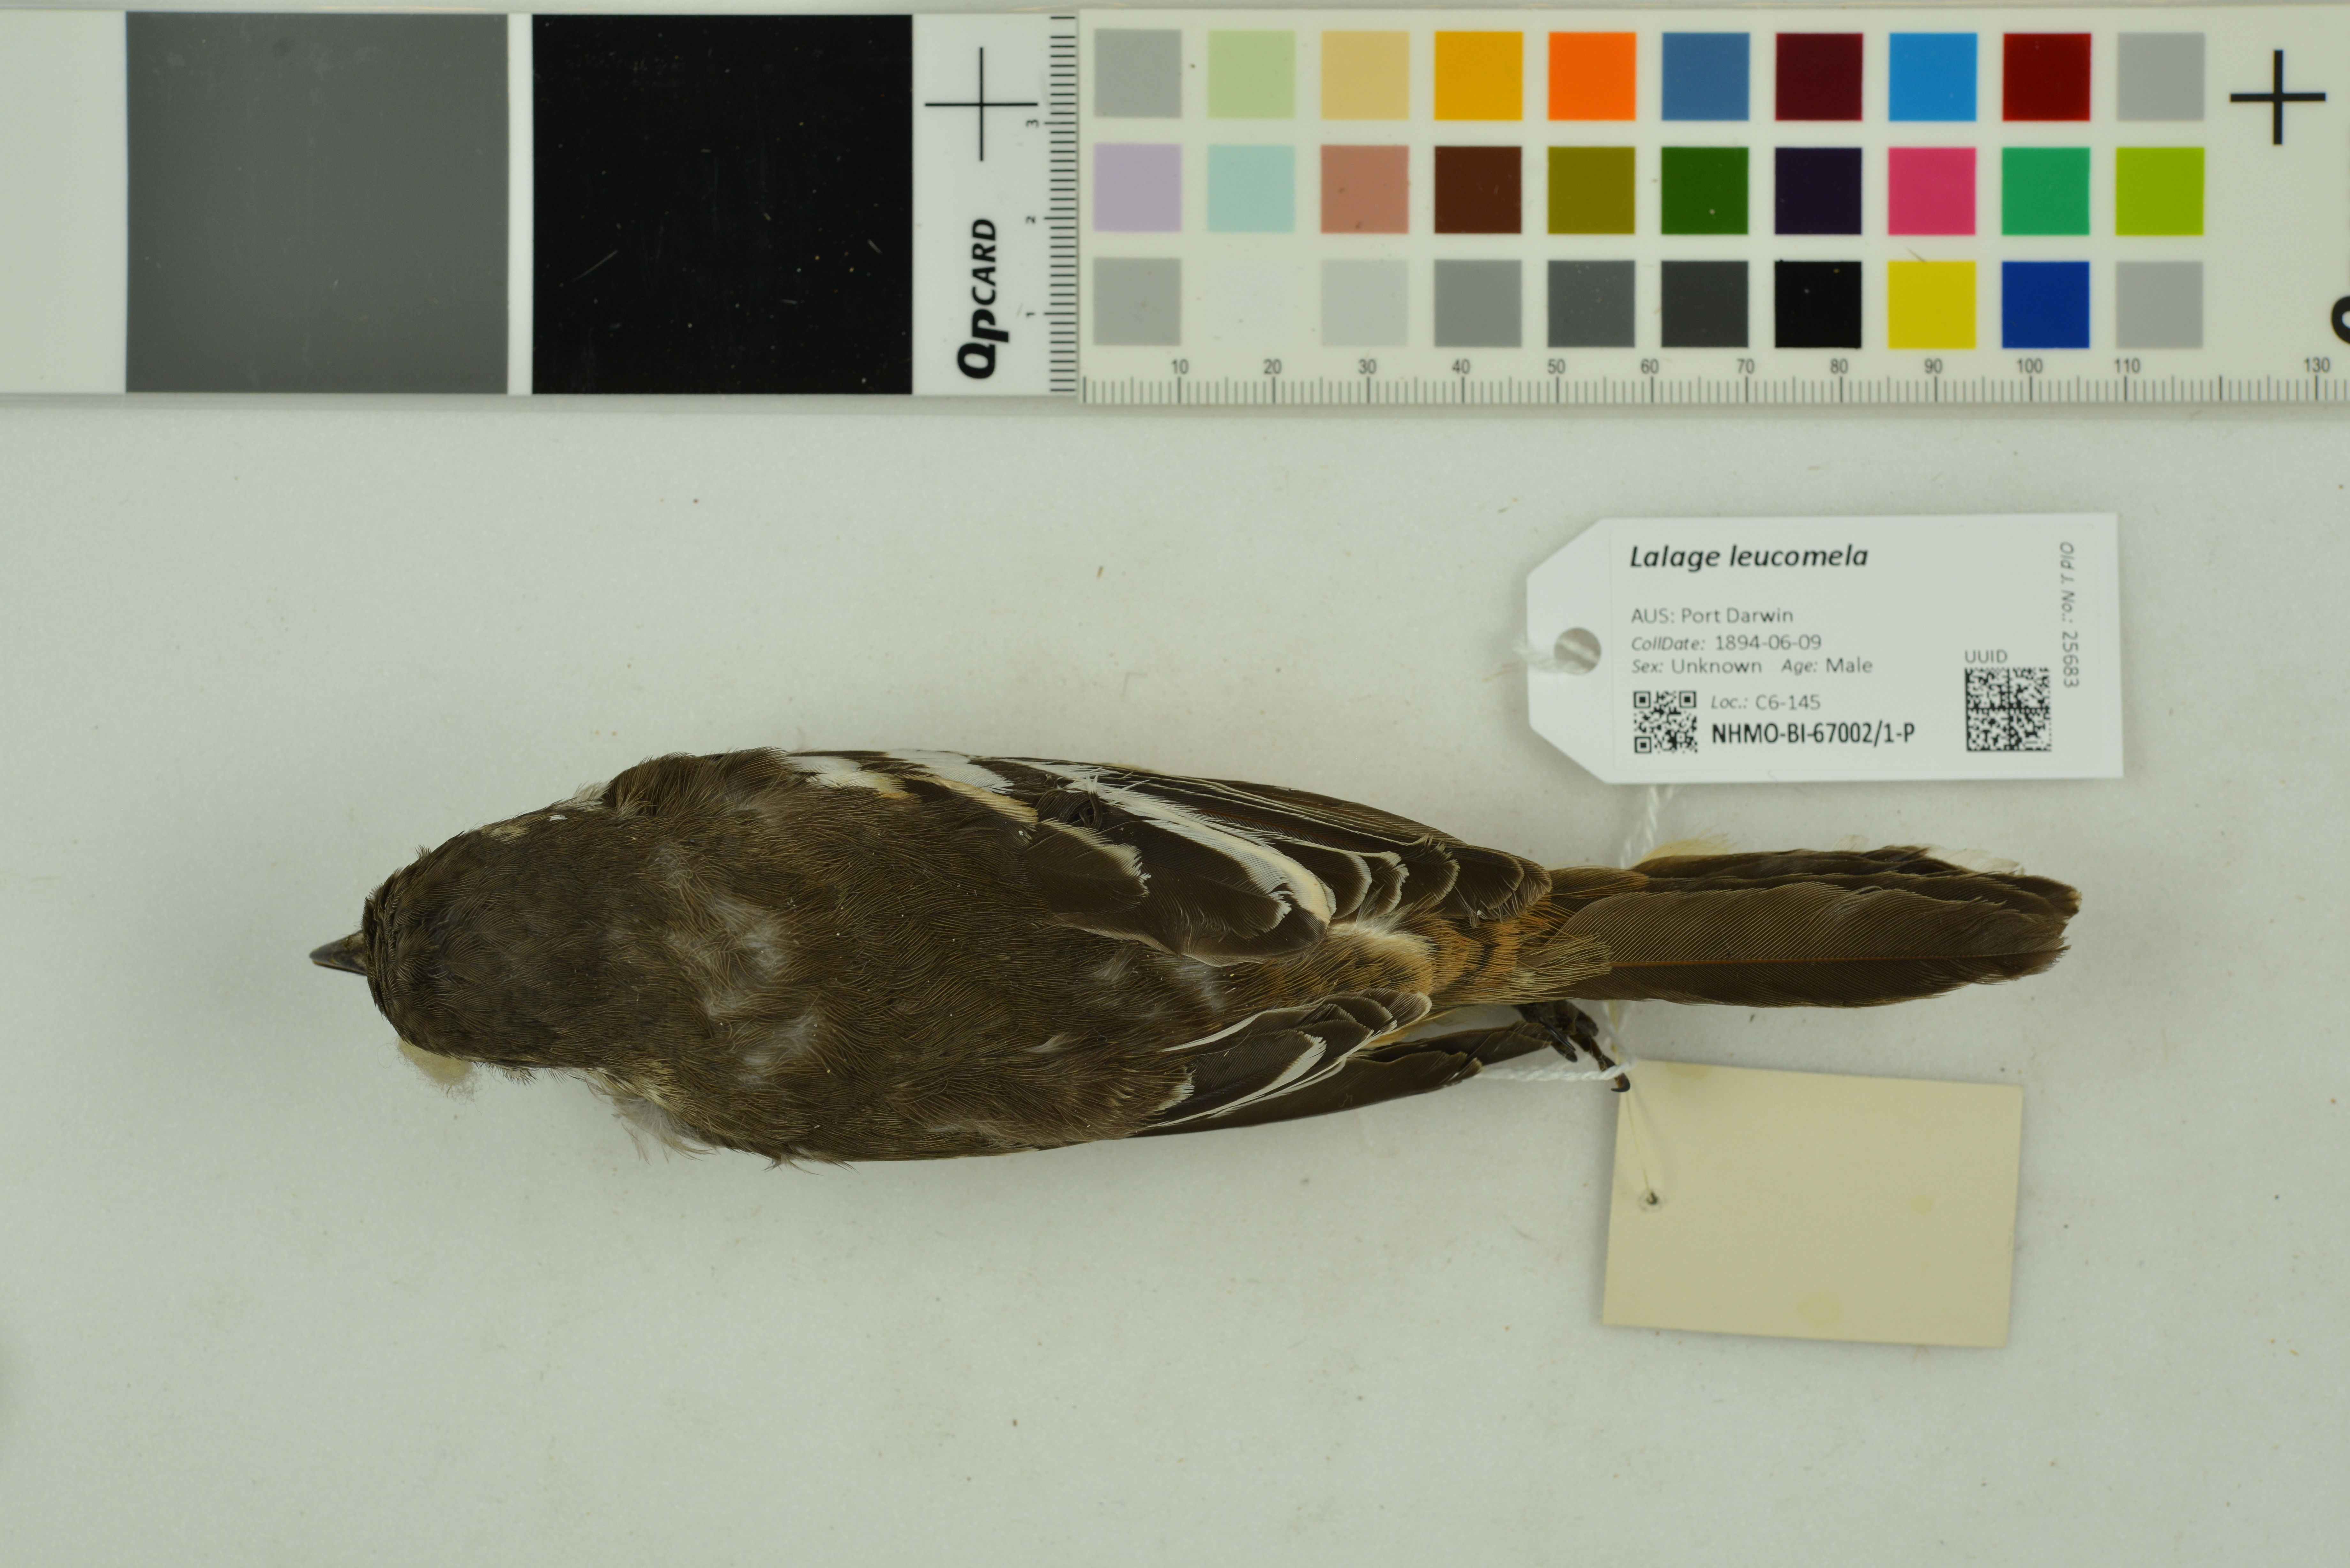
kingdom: Animalia
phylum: Chordata
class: Aves
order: Passeriformes
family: Campephagidae
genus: Lalage
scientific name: Lalage leucomela
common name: Varied triller
